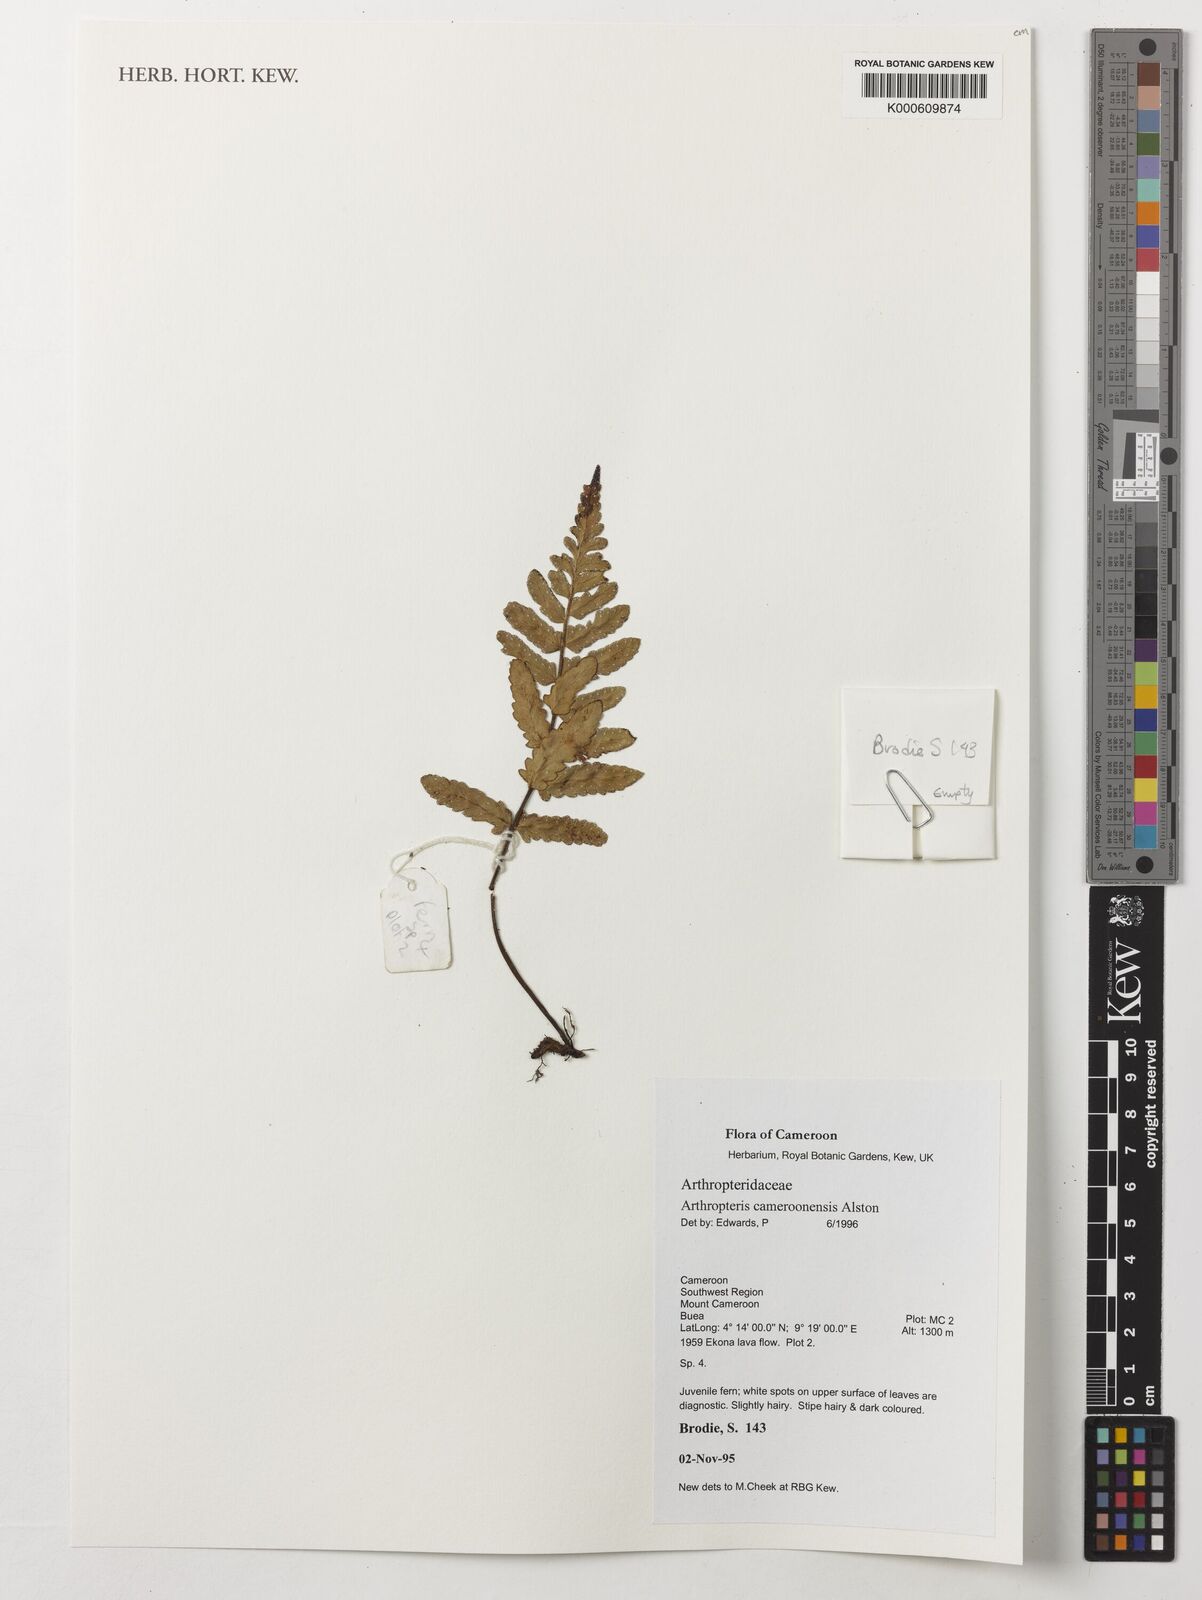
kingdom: Plantae
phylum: Tracheophyta
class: Polypodiopsida
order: Polypodiales
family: Tectariaceae
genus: Arthropteris
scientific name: Arthropteris cameroonensis
